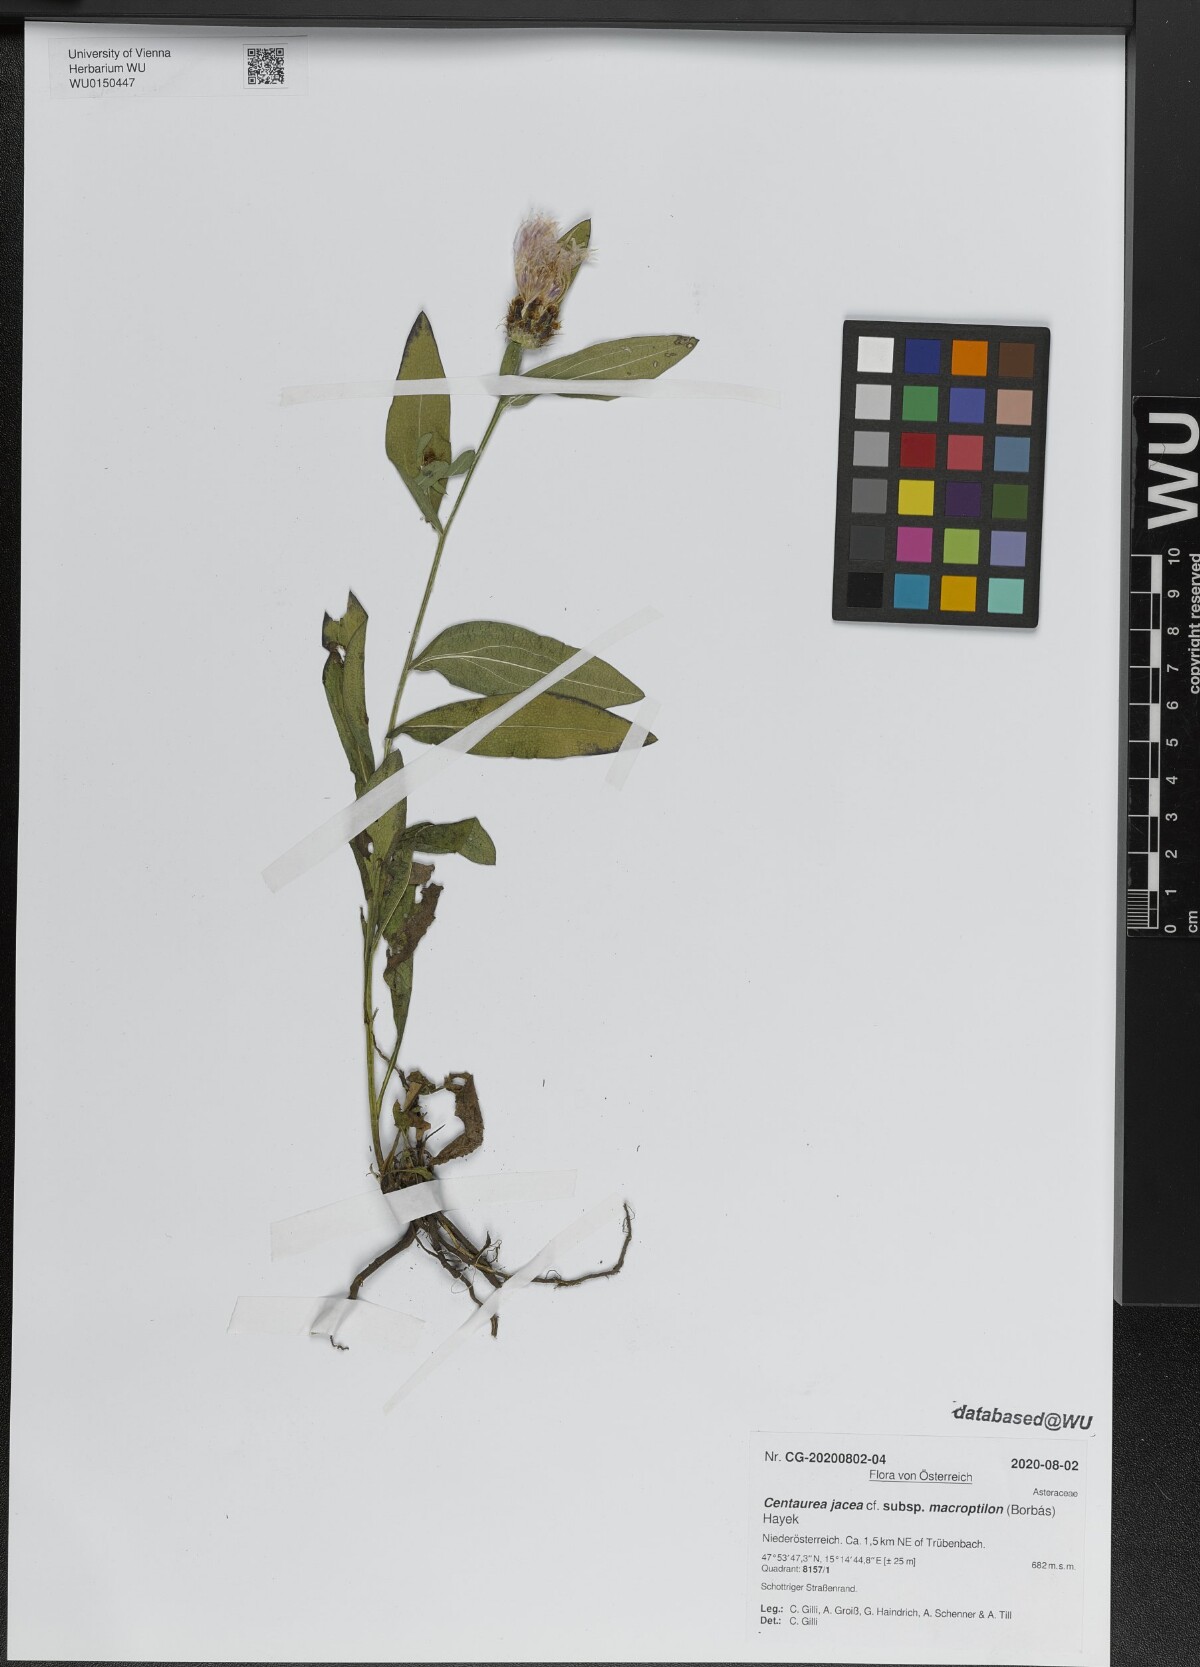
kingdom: Plantae
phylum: Tracheophyta
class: Magnoliopsida
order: Asterales
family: Asteraceae
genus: Centaurea
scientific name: Centaurea
